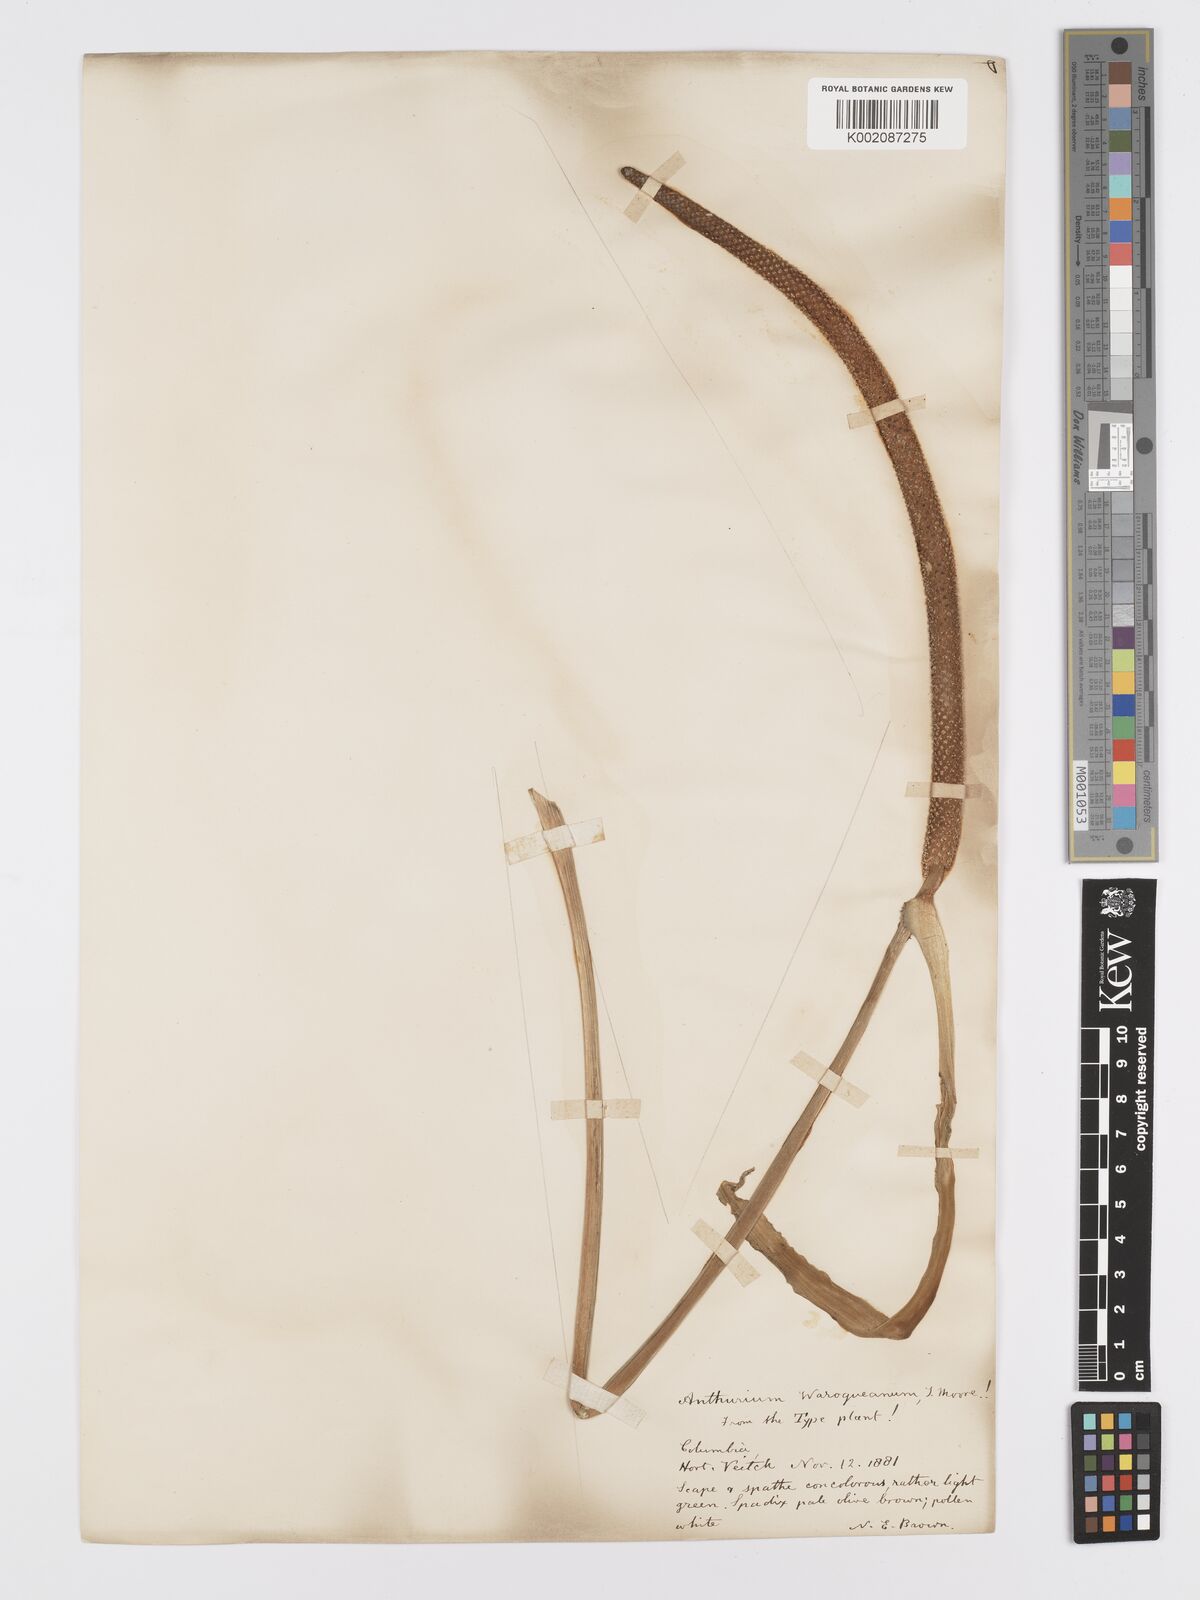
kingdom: Plantae
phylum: Tracheophyta
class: Liliopsida
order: Alismatales
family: Araceae
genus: Anthurium
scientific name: Anthurium warocqueanum
